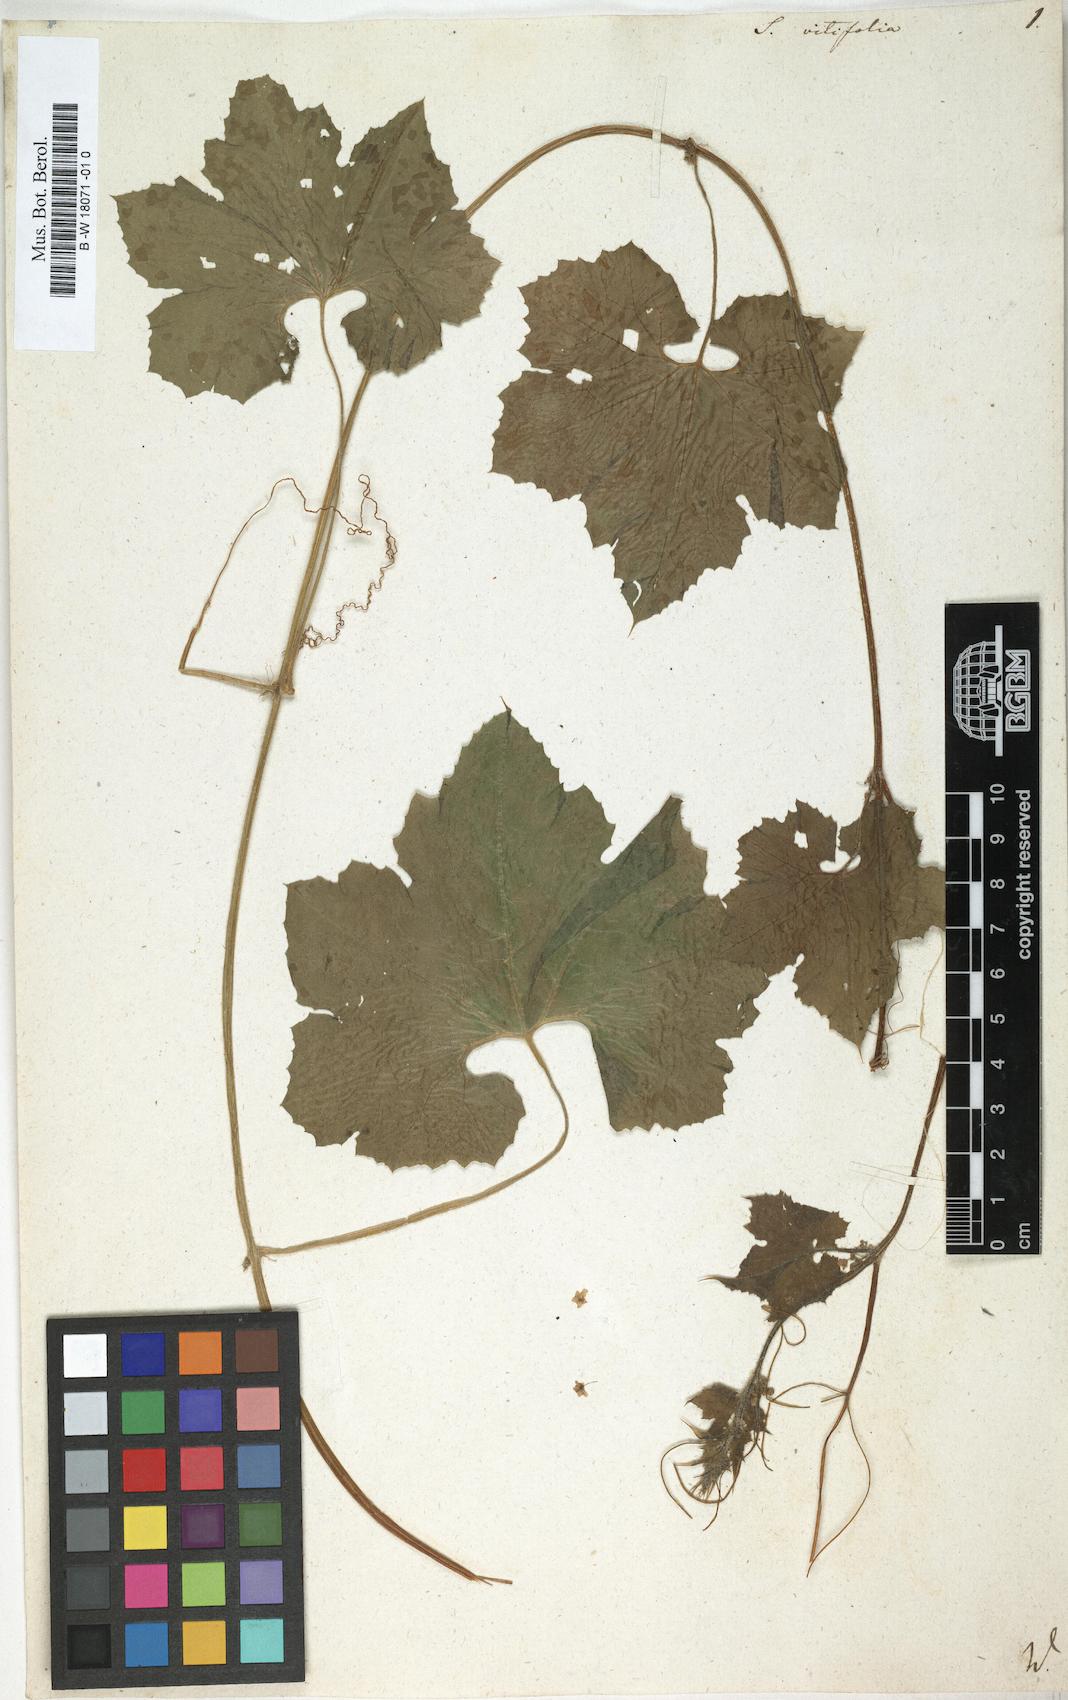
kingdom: Plantae
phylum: Tracheophyta
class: Magnoliopsida
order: Cucurbitales
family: Cucurbitaceae
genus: Sicyos
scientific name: Sicyos
